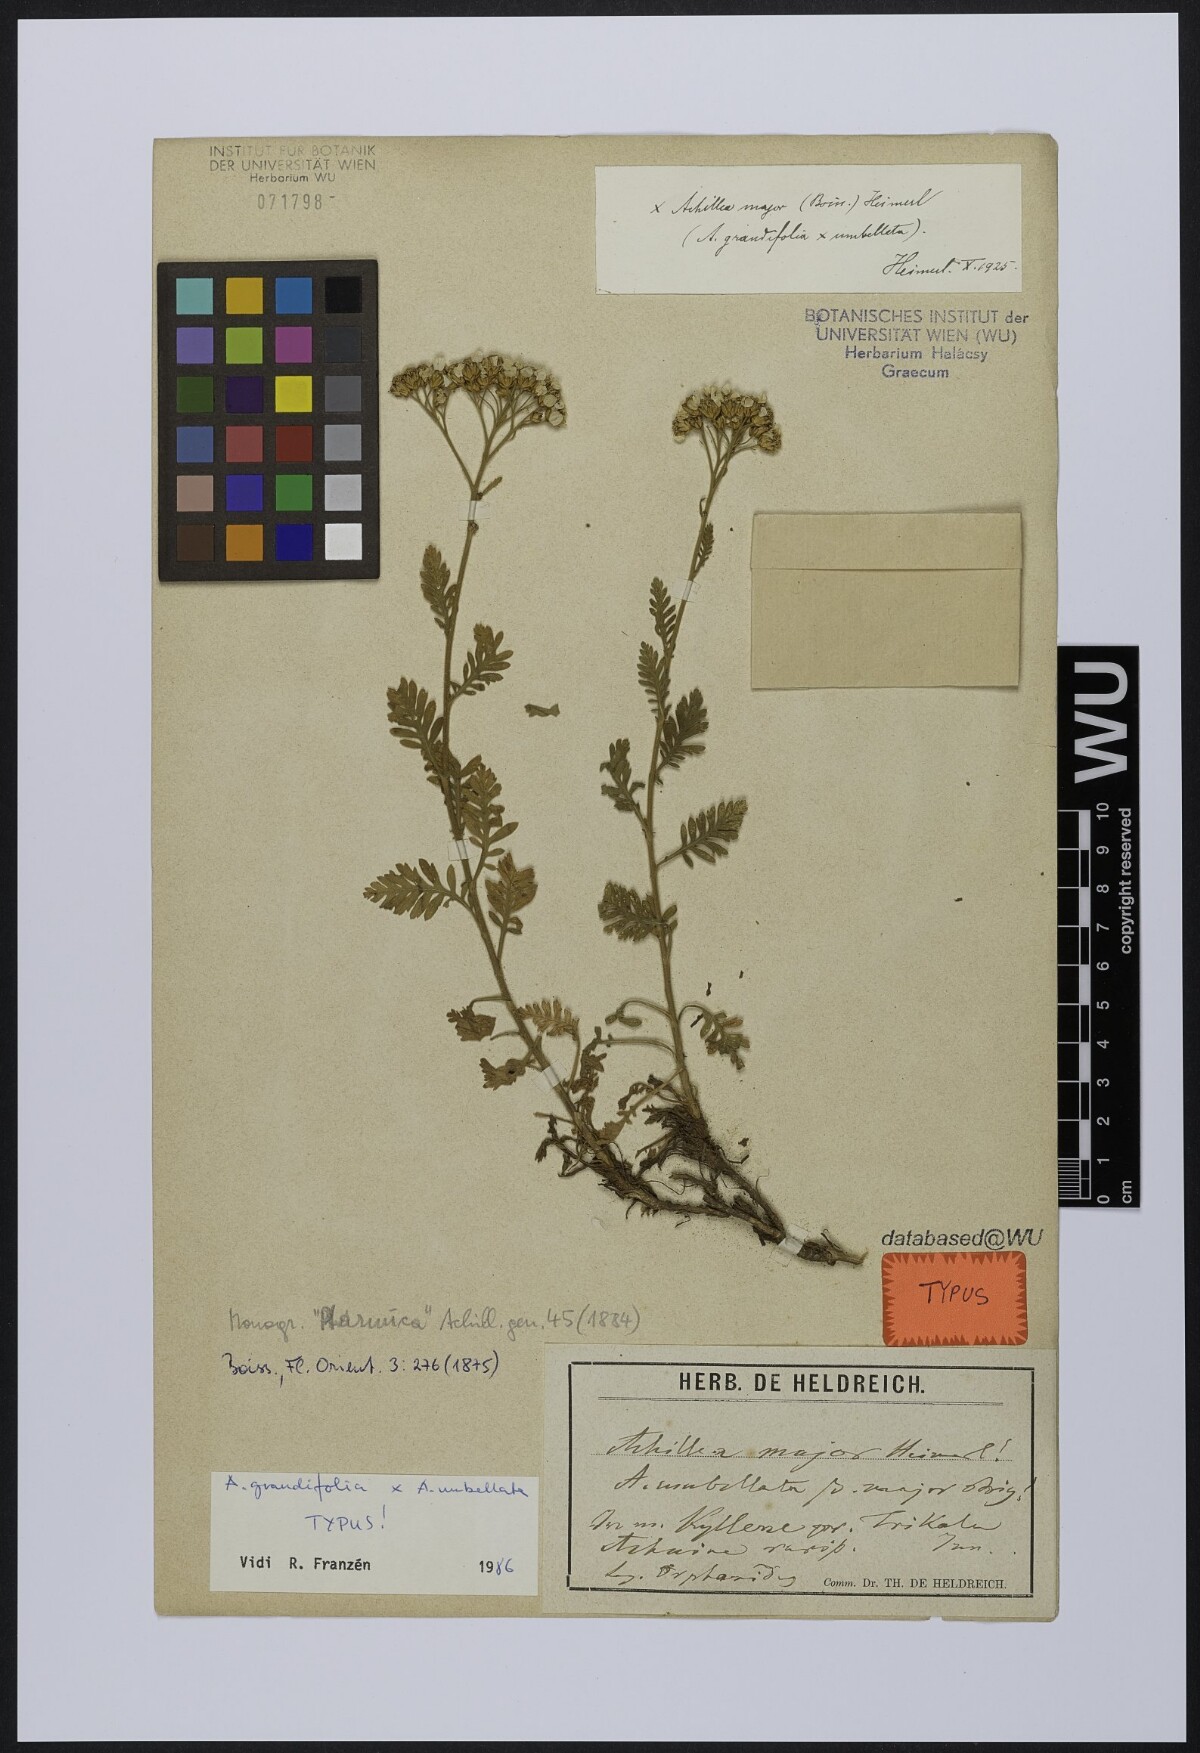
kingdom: Plantae
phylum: Tracheophyta
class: Magnoliopsida
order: Asterales
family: Asteraceae
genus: Achillea
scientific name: Achillea major
